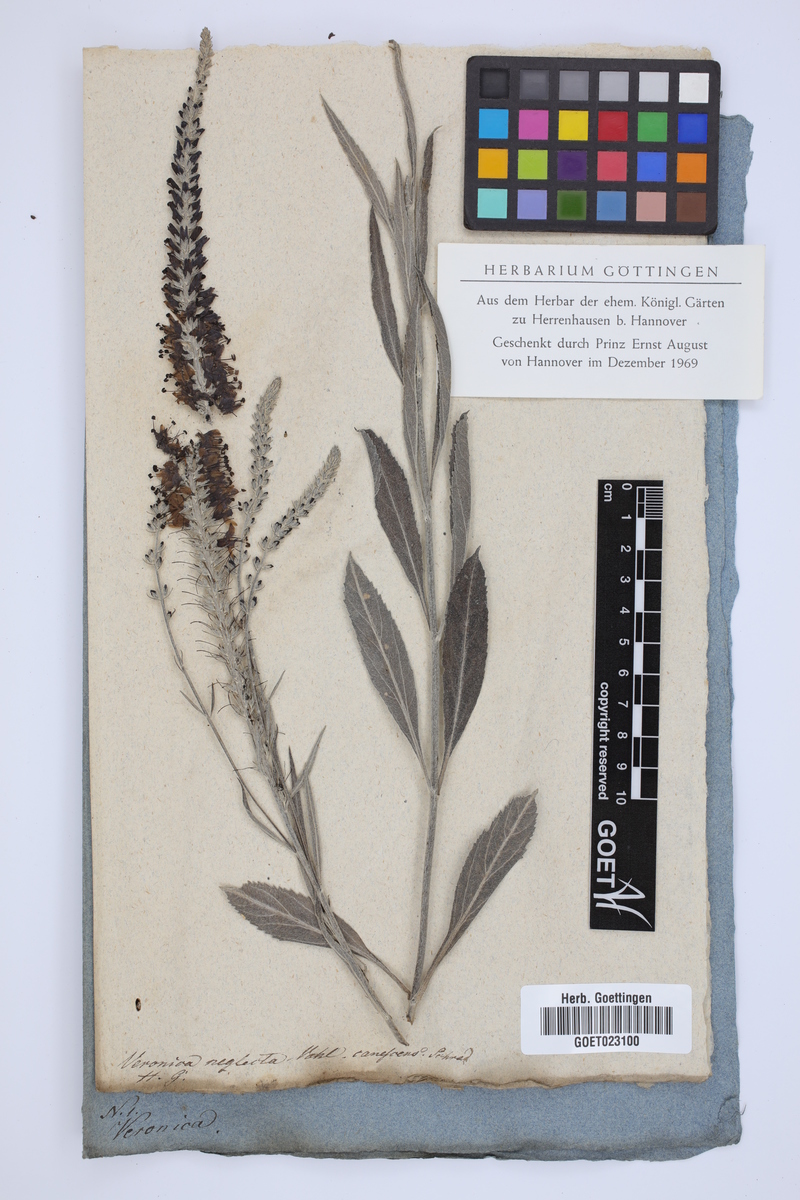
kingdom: Plantae
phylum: Tracheophyta
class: Magnoliopsida
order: Lamiales
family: Plantaginaceae
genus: Veronica
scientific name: Veronica
